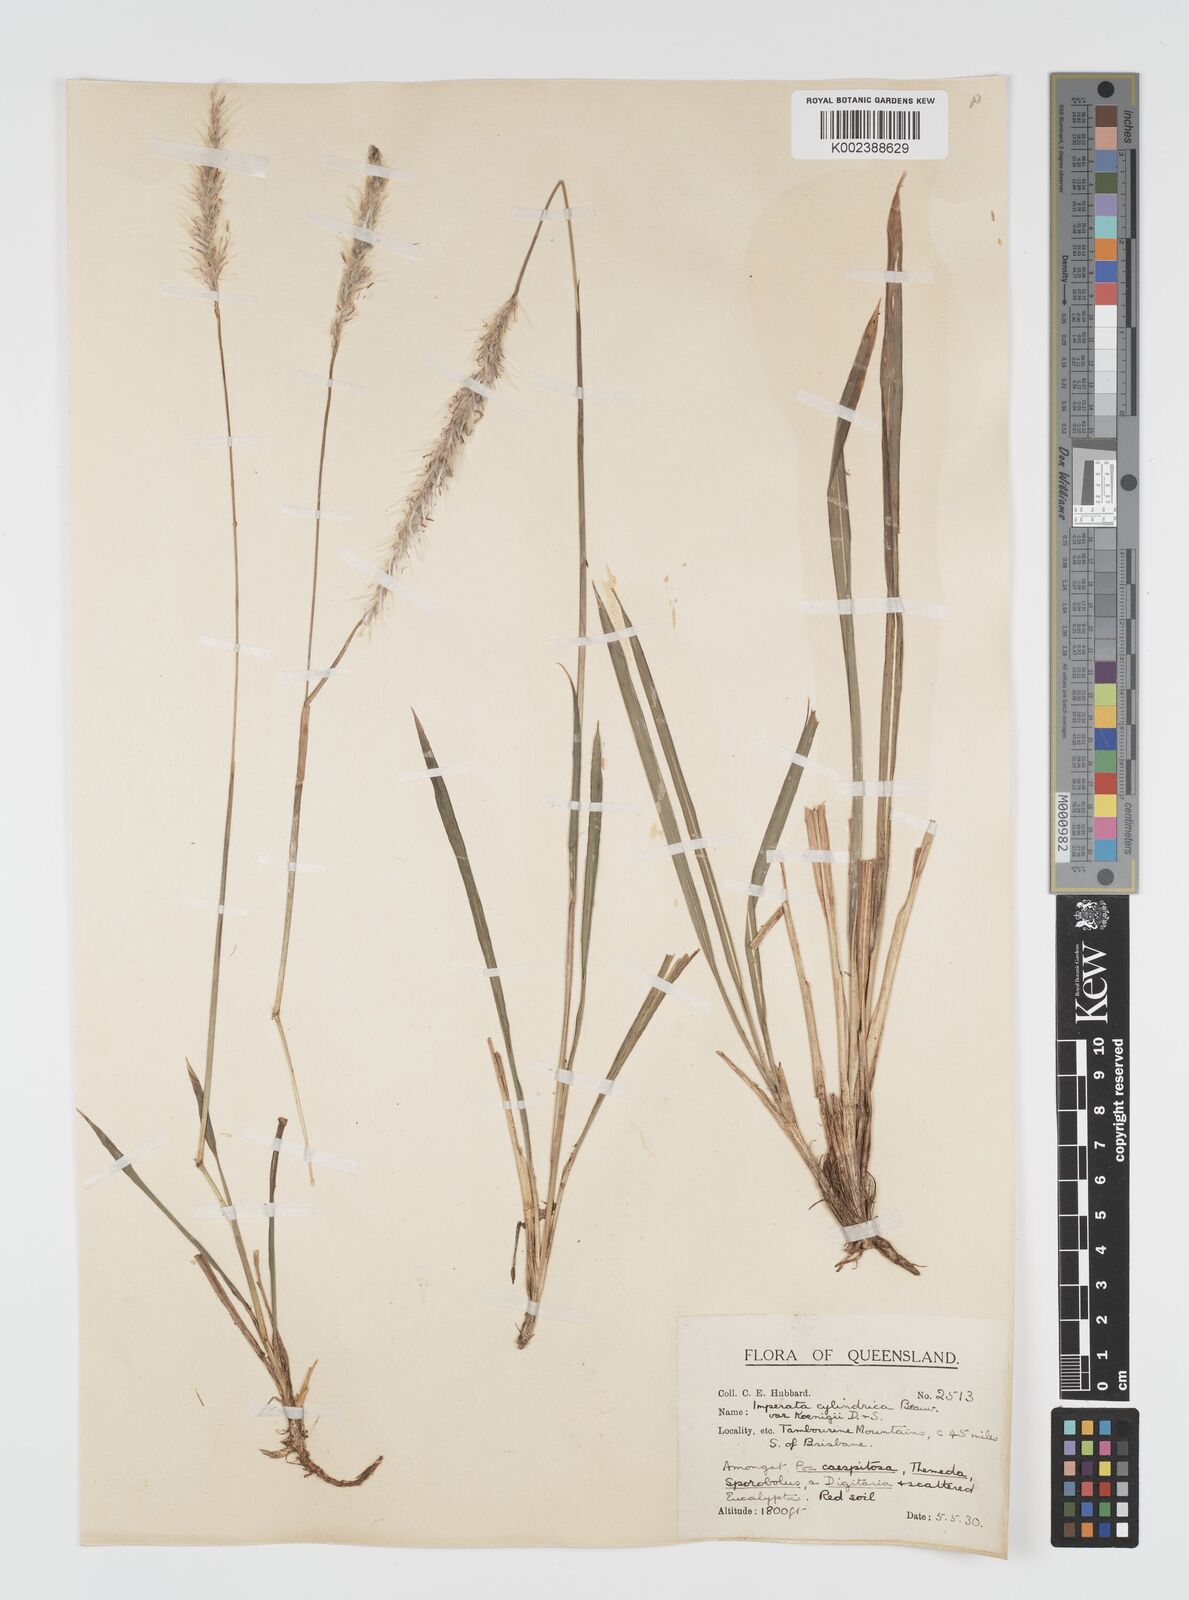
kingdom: Plantae
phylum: Tracheophyta
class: Liliopsida
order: Poales
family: Poaceae
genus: Imperata
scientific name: Imperata cylindrica
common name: Cogongrass
